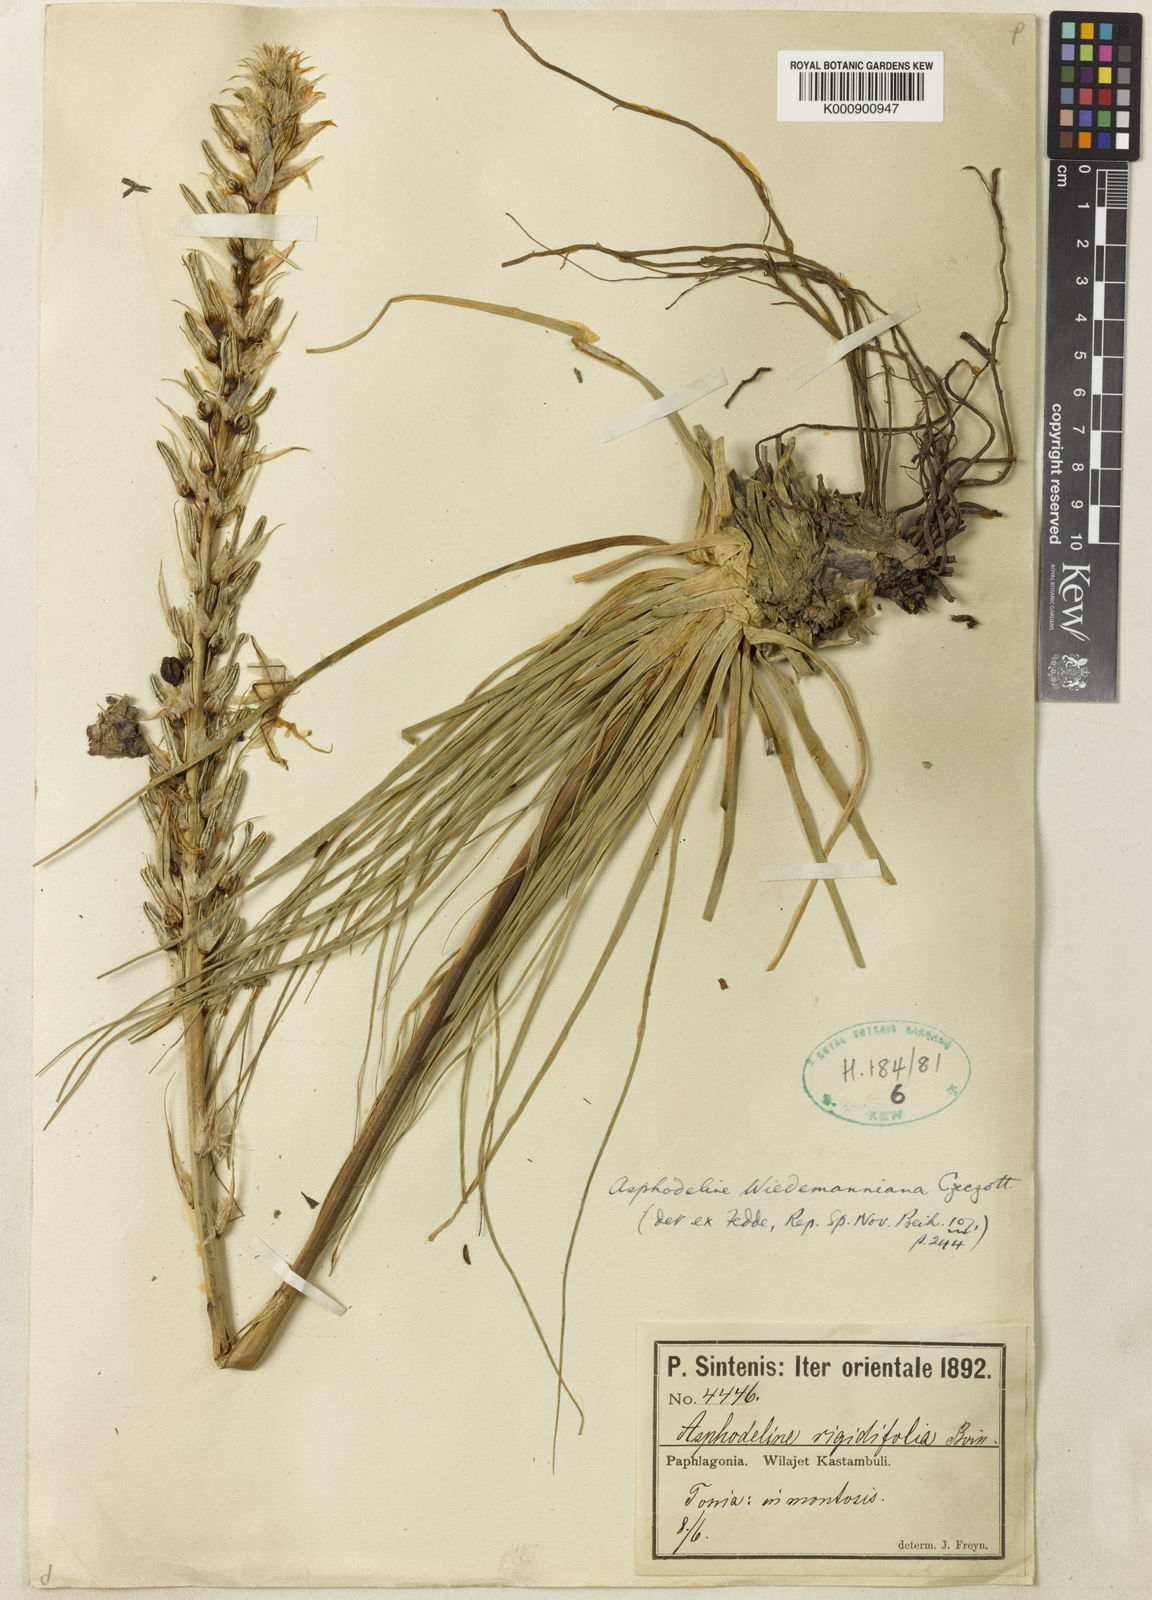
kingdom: Plantae
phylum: Tracheophyta
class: Liliopsida
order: Asparagales
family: Asphodelaceae
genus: Asphodeline
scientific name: Asphodeline damascena
